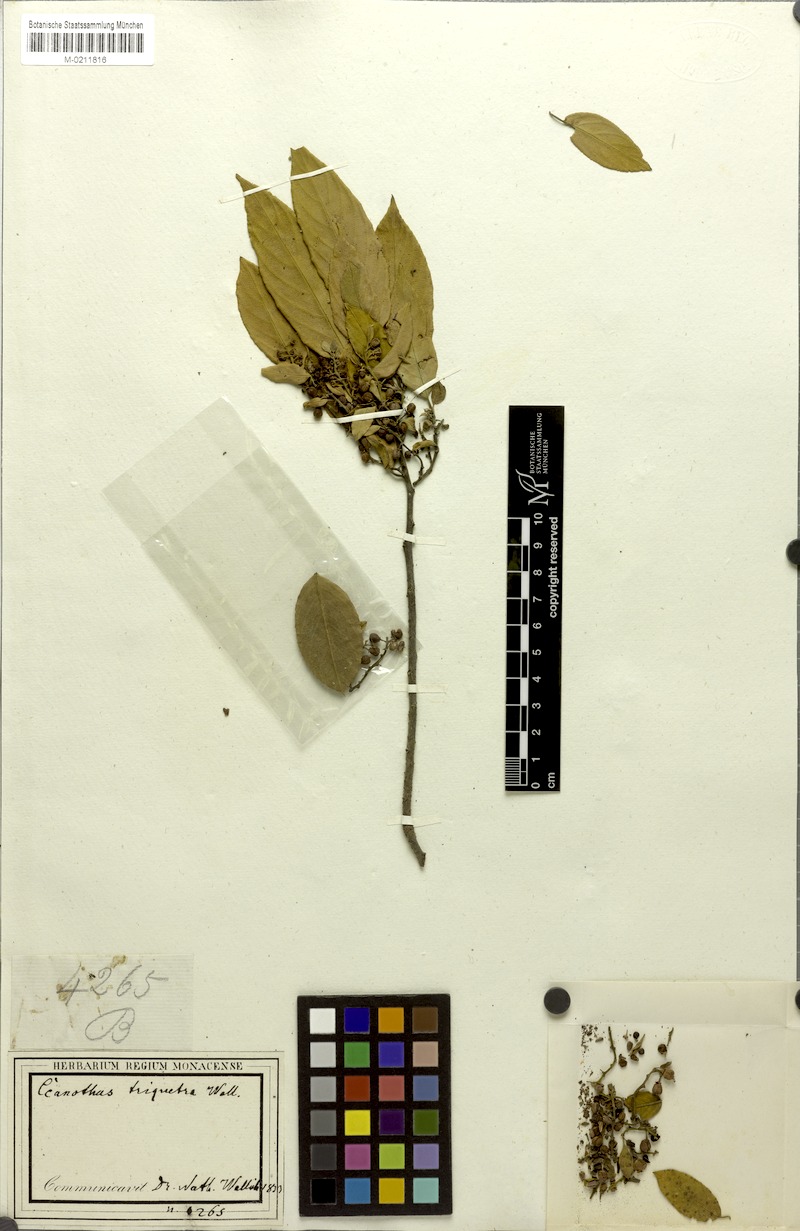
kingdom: Plantae
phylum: Tracheophyta
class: Magnoliopsida
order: Rosales
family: Rhamnaceae
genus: Rhamnus
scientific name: Rhamnus triquetra
